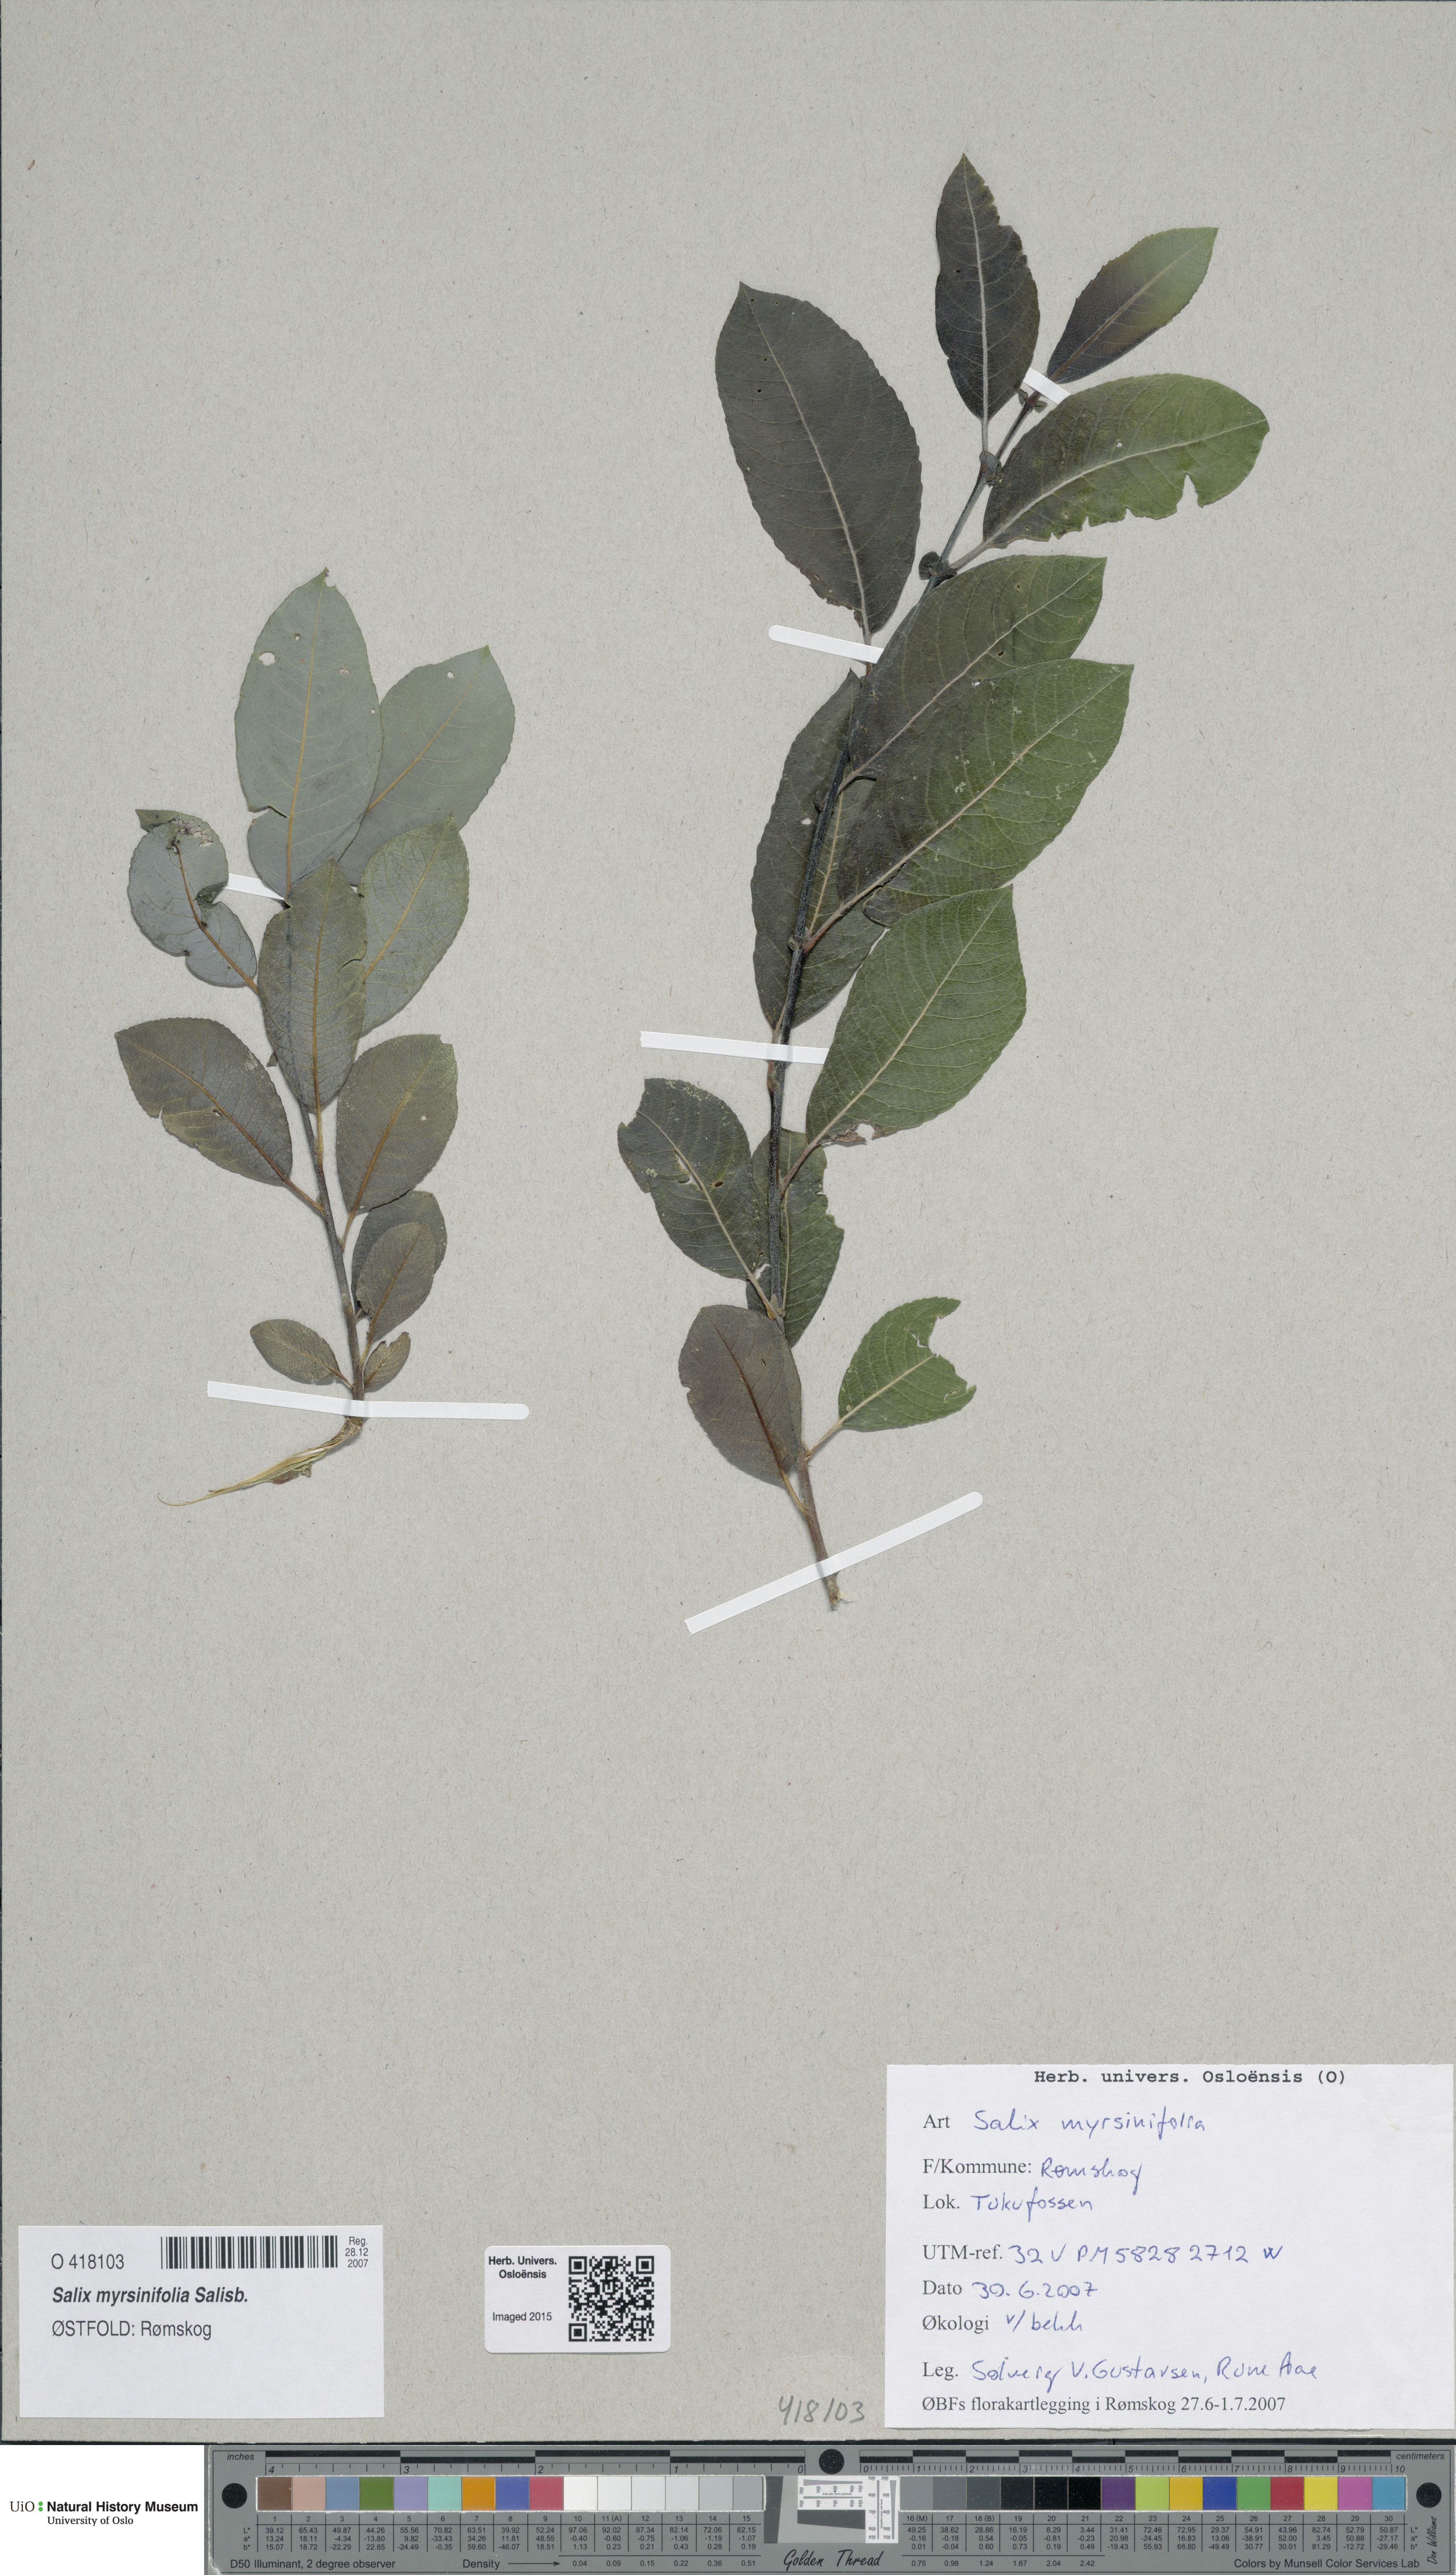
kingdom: Plantae
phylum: Tracheophyta
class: Magnoliopsida
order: Malpighiales
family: Salicaceae
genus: Salix
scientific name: Salix myrsinifolia
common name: Dark-leaved willow
